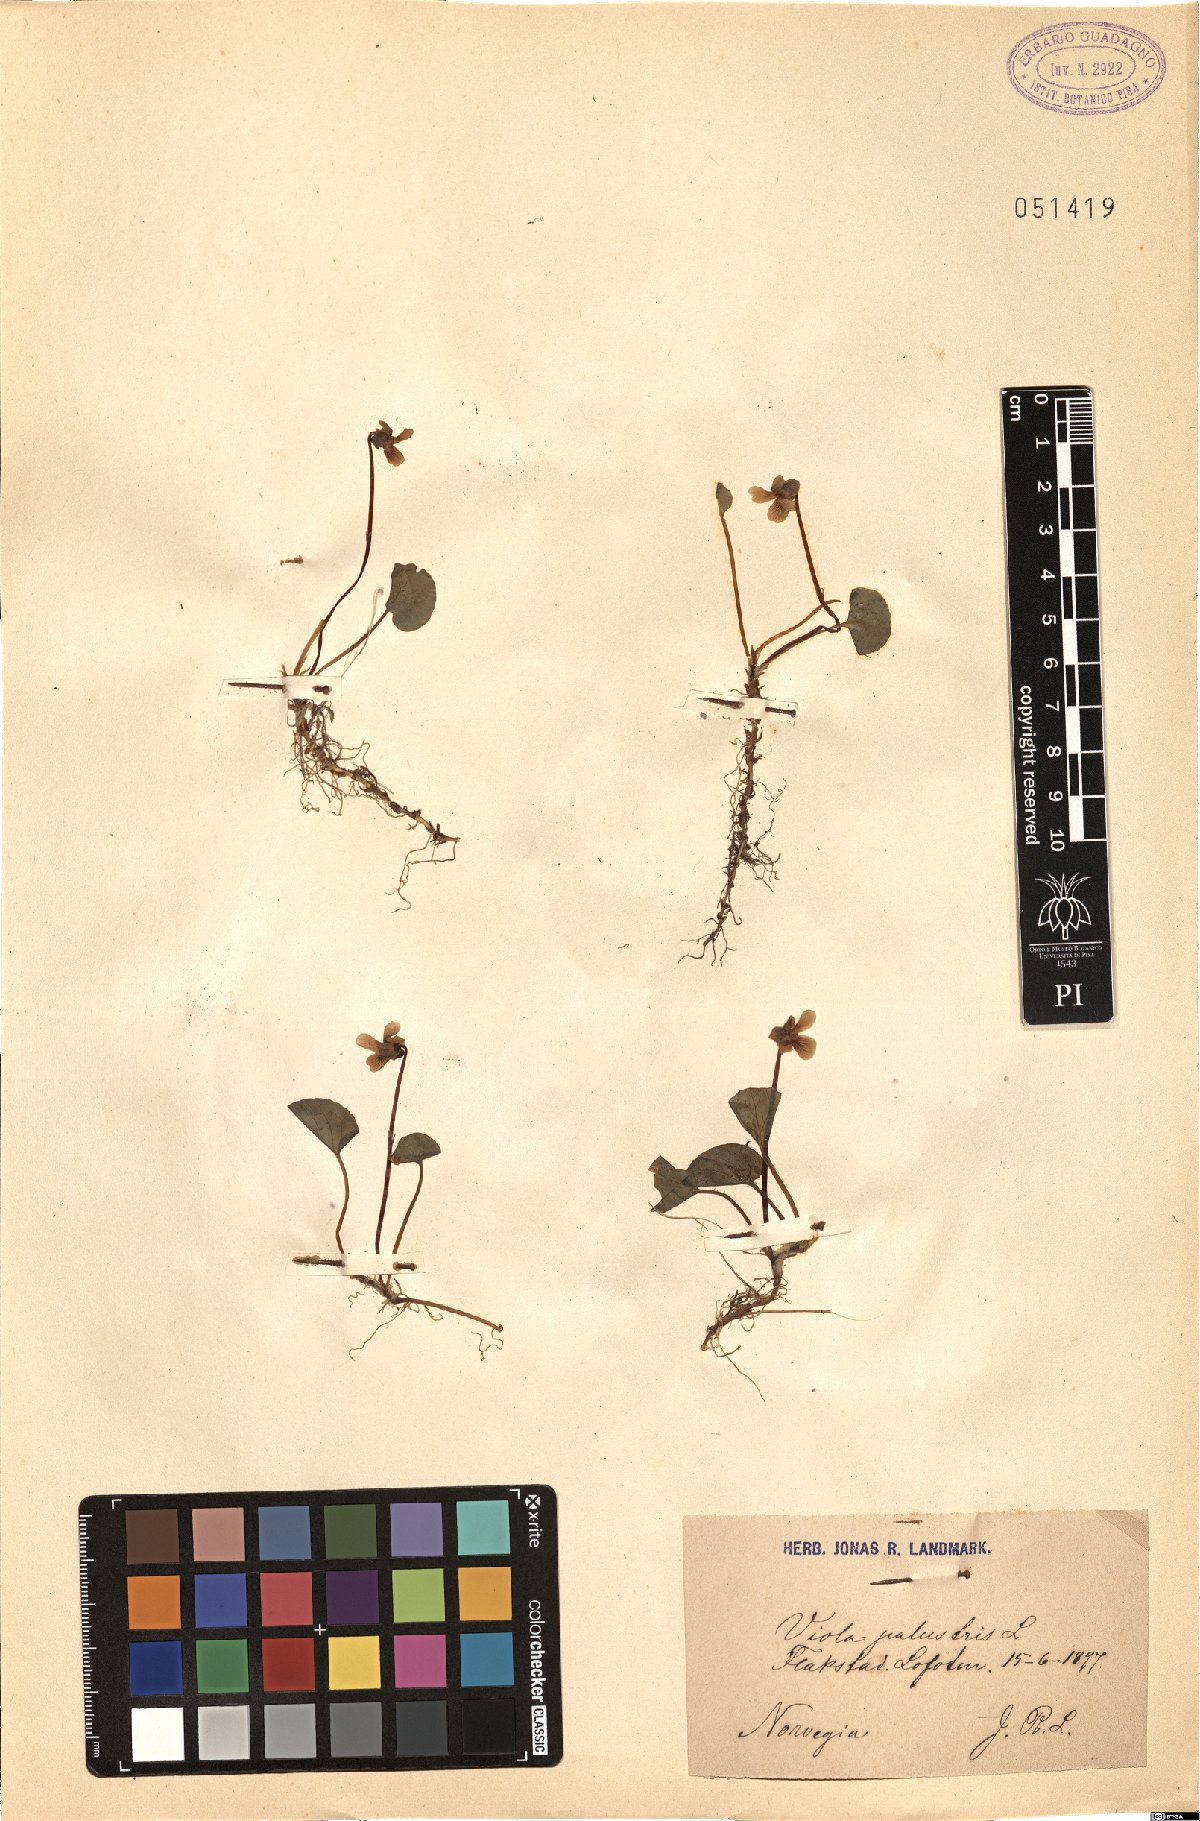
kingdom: Plantae
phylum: Tracheophyta
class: Magnoliopsida
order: Malpighiales
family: Violaceae
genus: Viola
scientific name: Viola palustris
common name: Marsh violet
